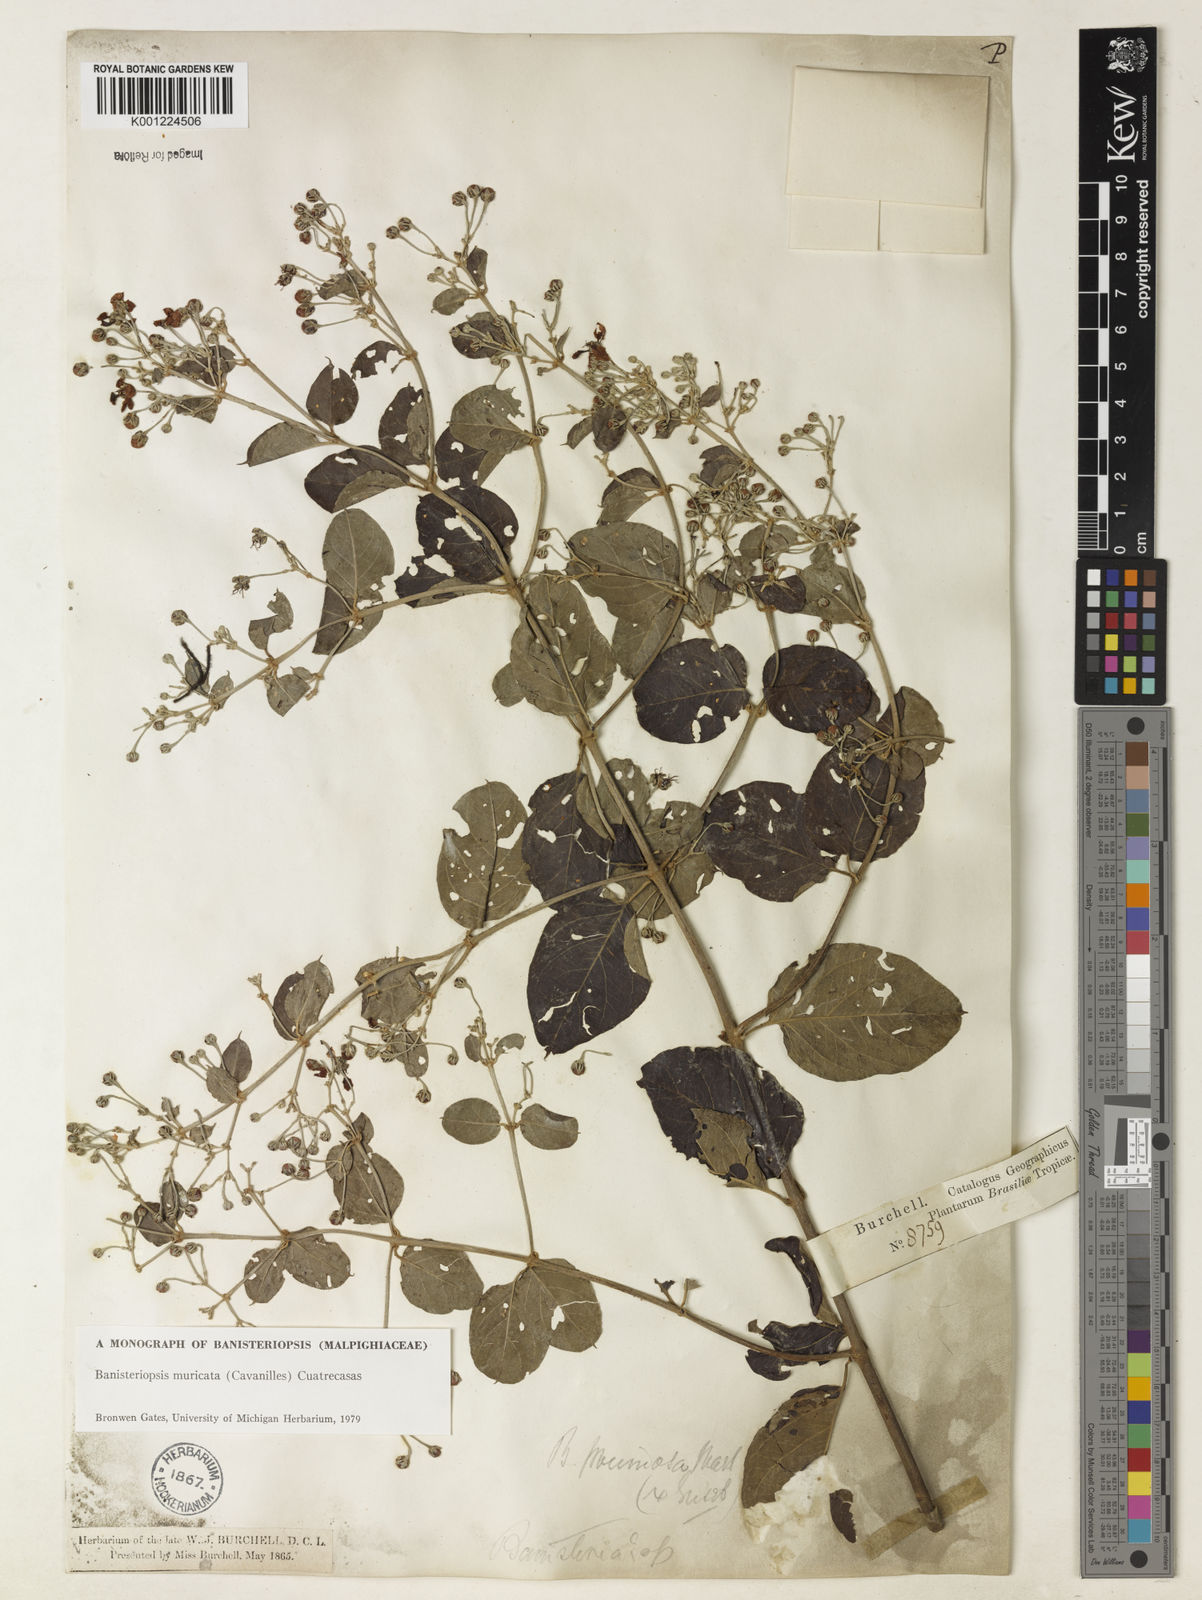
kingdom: Plantae
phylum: Tracheophyta
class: Magnoliopsida
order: Malpighiales
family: Malpighiaceae
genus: Banisteriopsis
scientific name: Banisteriopsis muricata
